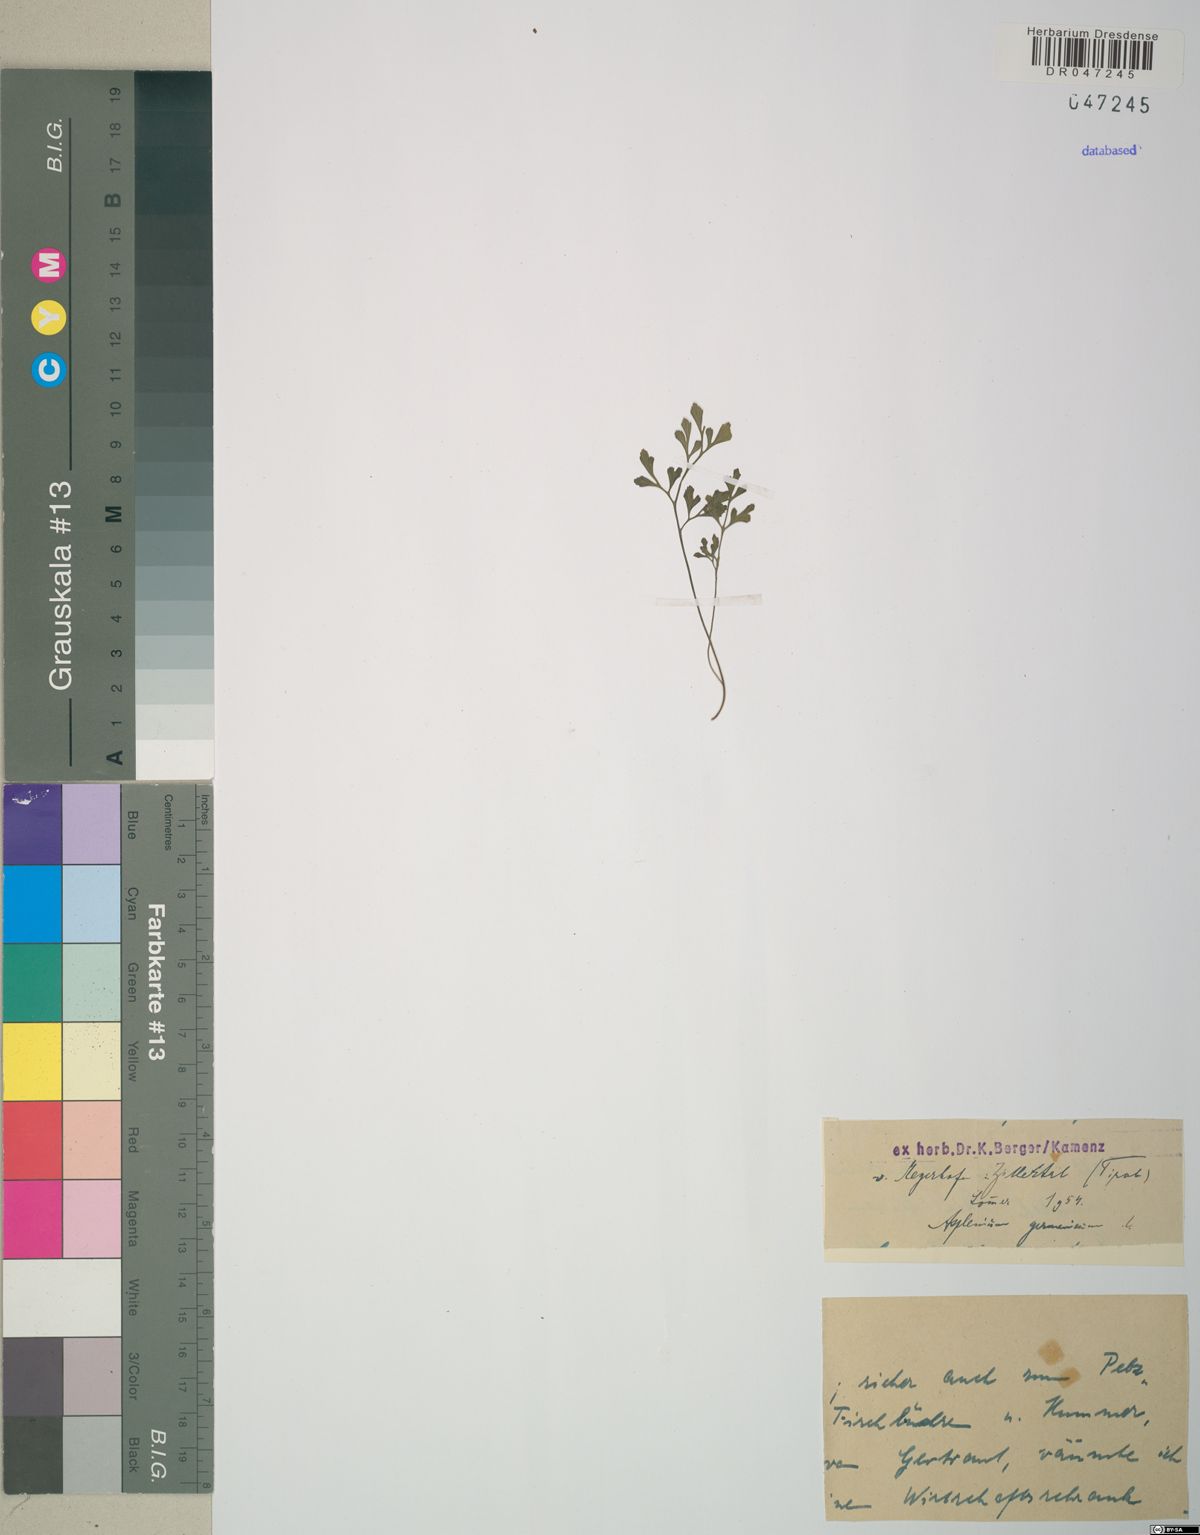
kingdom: Plantae
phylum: Tracheophyta
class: Polypodiopsida
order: Polypodiales
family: Aspleniaceae
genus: Asplenium
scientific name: Asplenium
